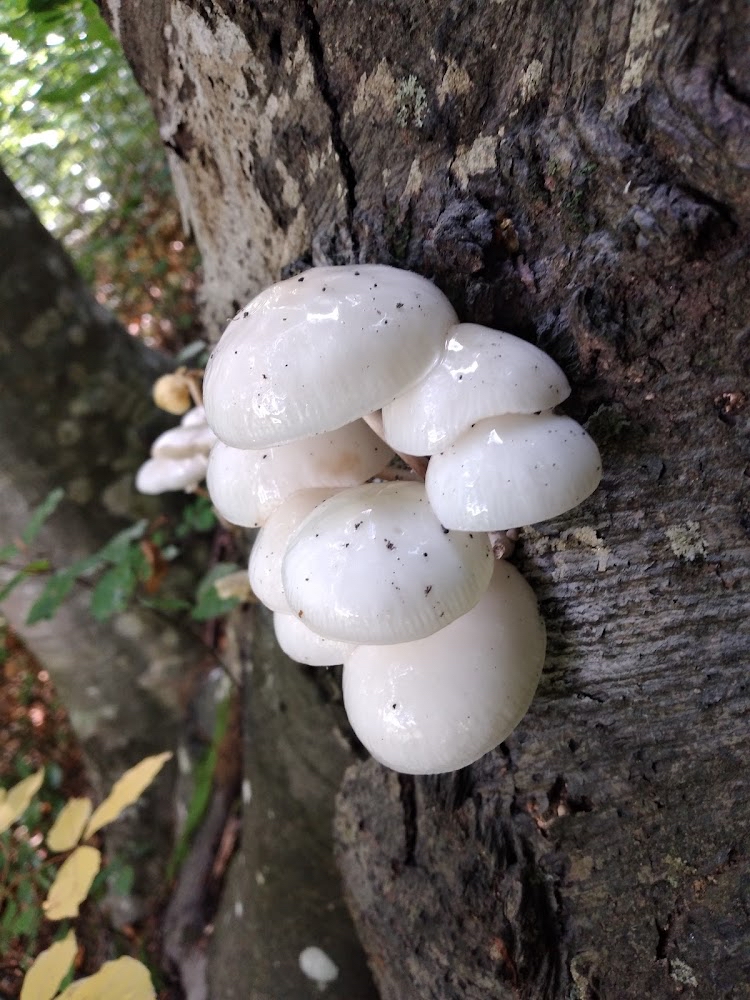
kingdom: Fungi
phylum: Basidiomycota
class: Agaricomycetes
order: Agaricales
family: Physalacriaceae
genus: Mucidula
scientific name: Mucidula mucida
